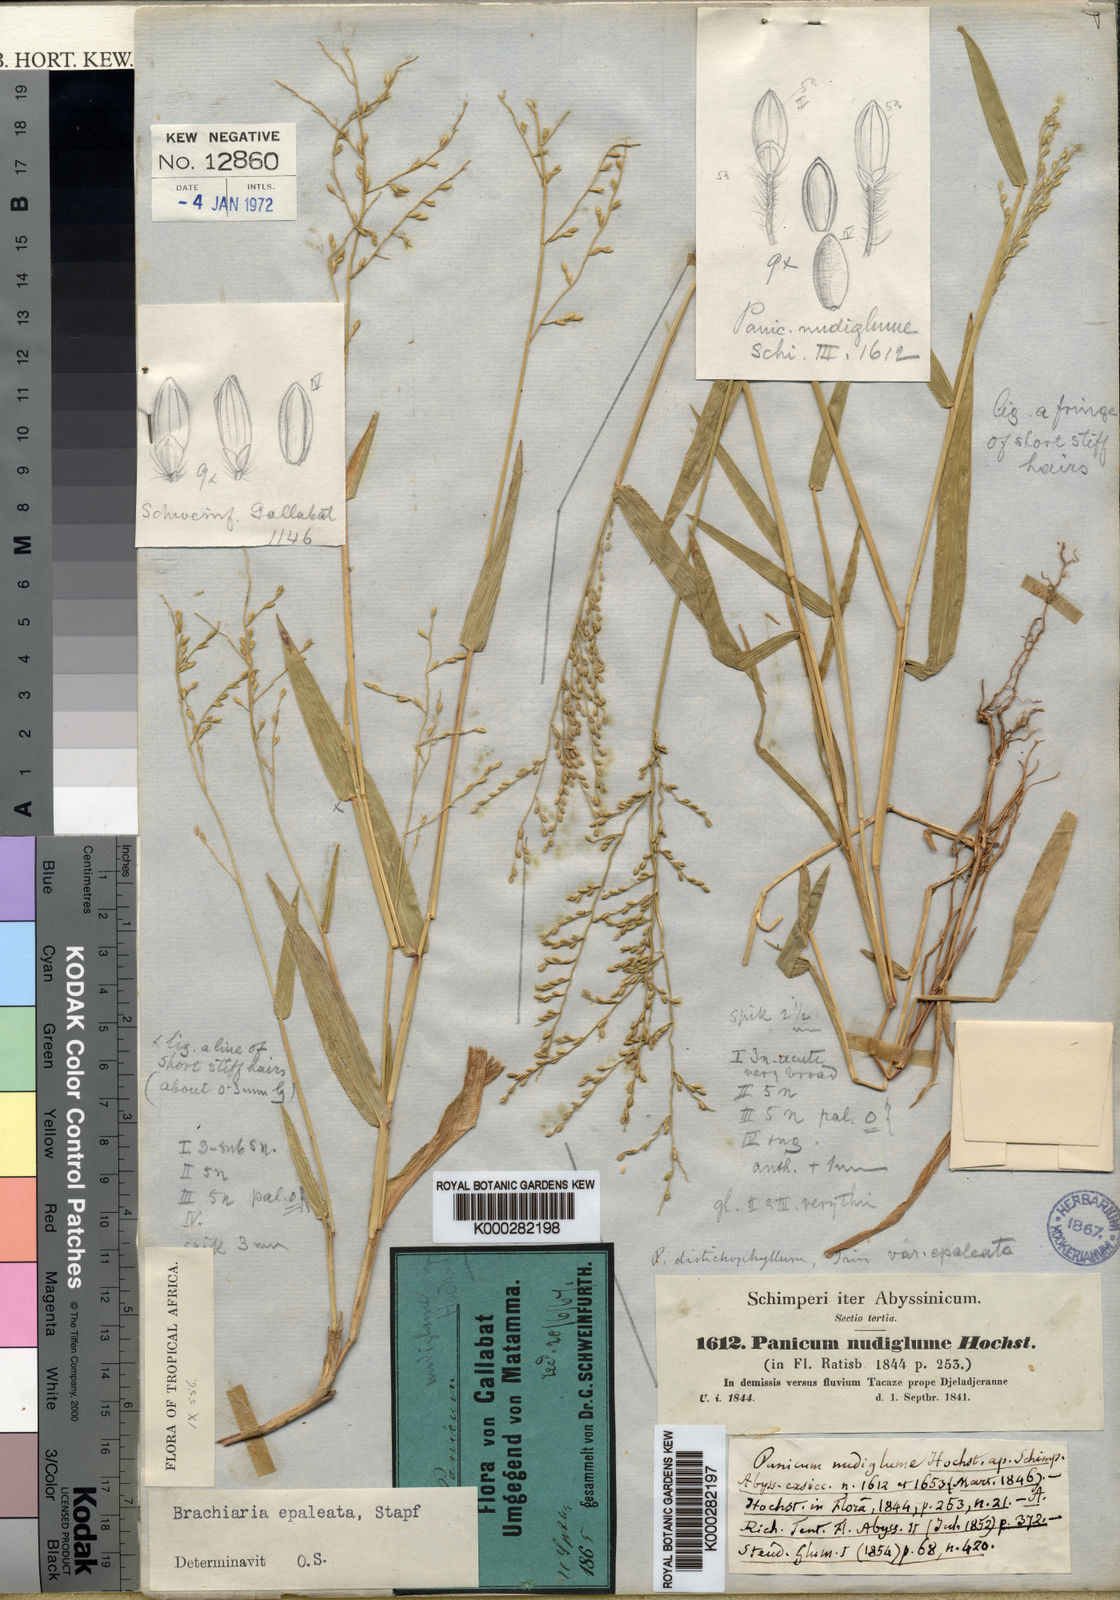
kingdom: Plantae
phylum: Tracheophyta
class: Liliopsida
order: Poales
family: Poaceae
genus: Urochloa
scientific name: Urochloa comata
